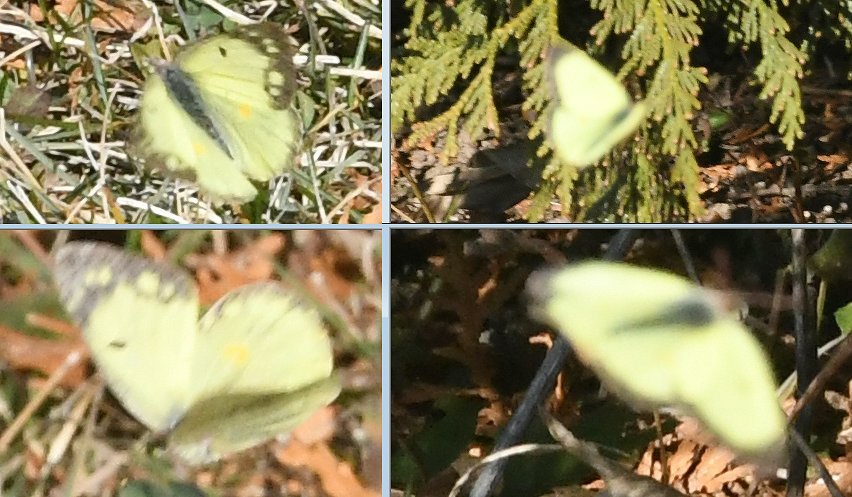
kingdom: Animalia
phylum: Arthropoda
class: Insecta
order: Lepidoptera
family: Pieridae
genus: Colias
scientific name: Colias philodice
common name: Clouded Sulphur
